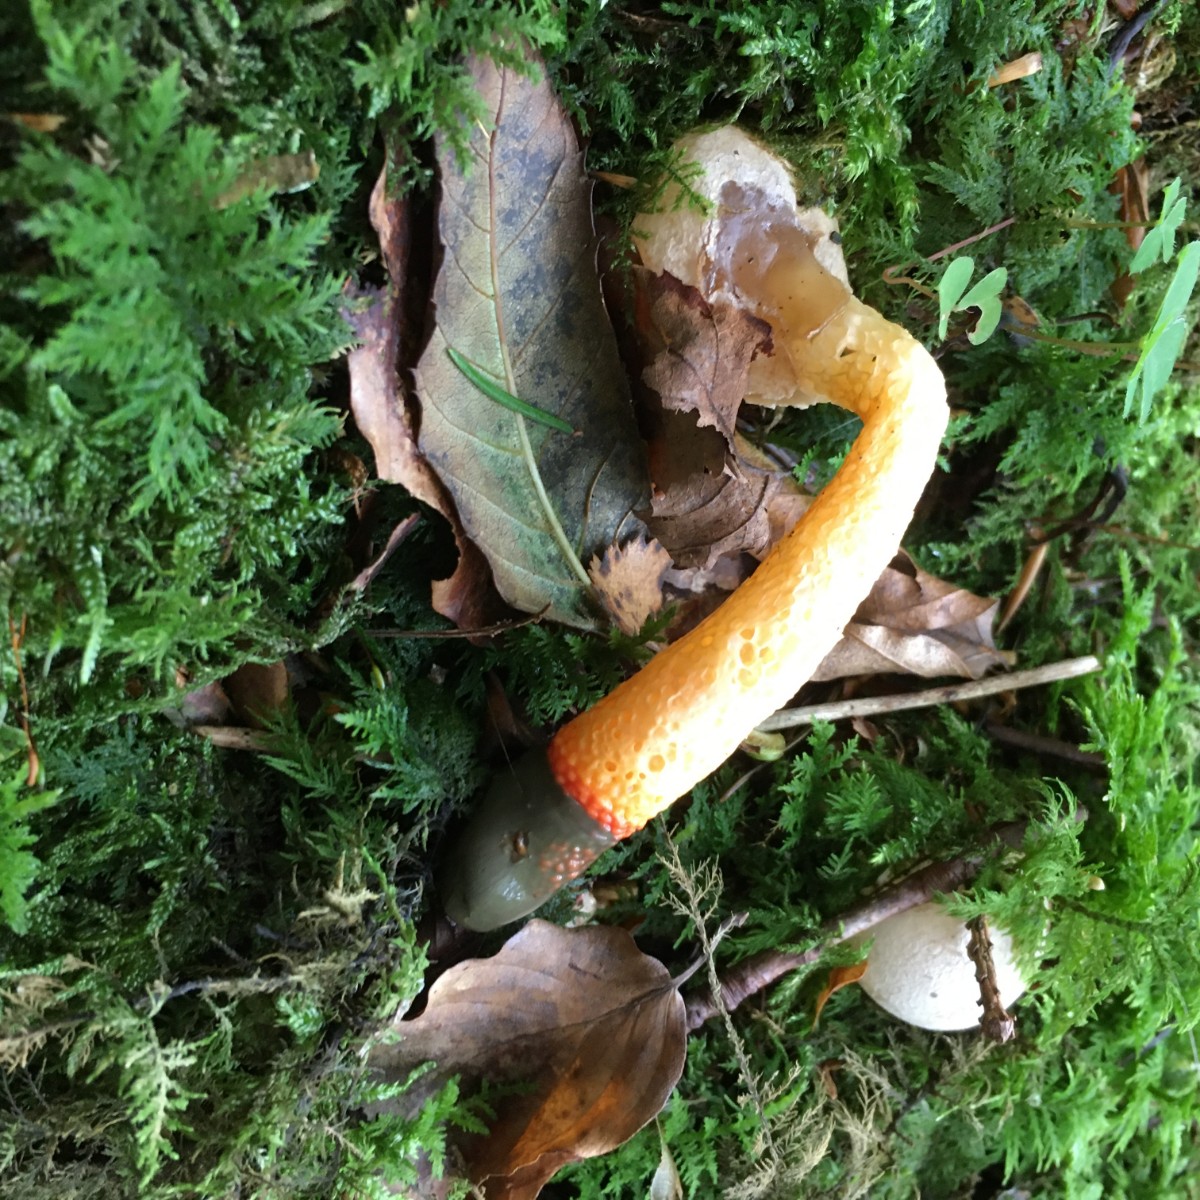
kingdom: Fungi
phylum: Basidiomycota
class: Agaricomycetes
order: Phallales
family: Phallaceae
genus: Mutinus
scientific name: Mutinus caninus
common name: hunde-stinksvamp
